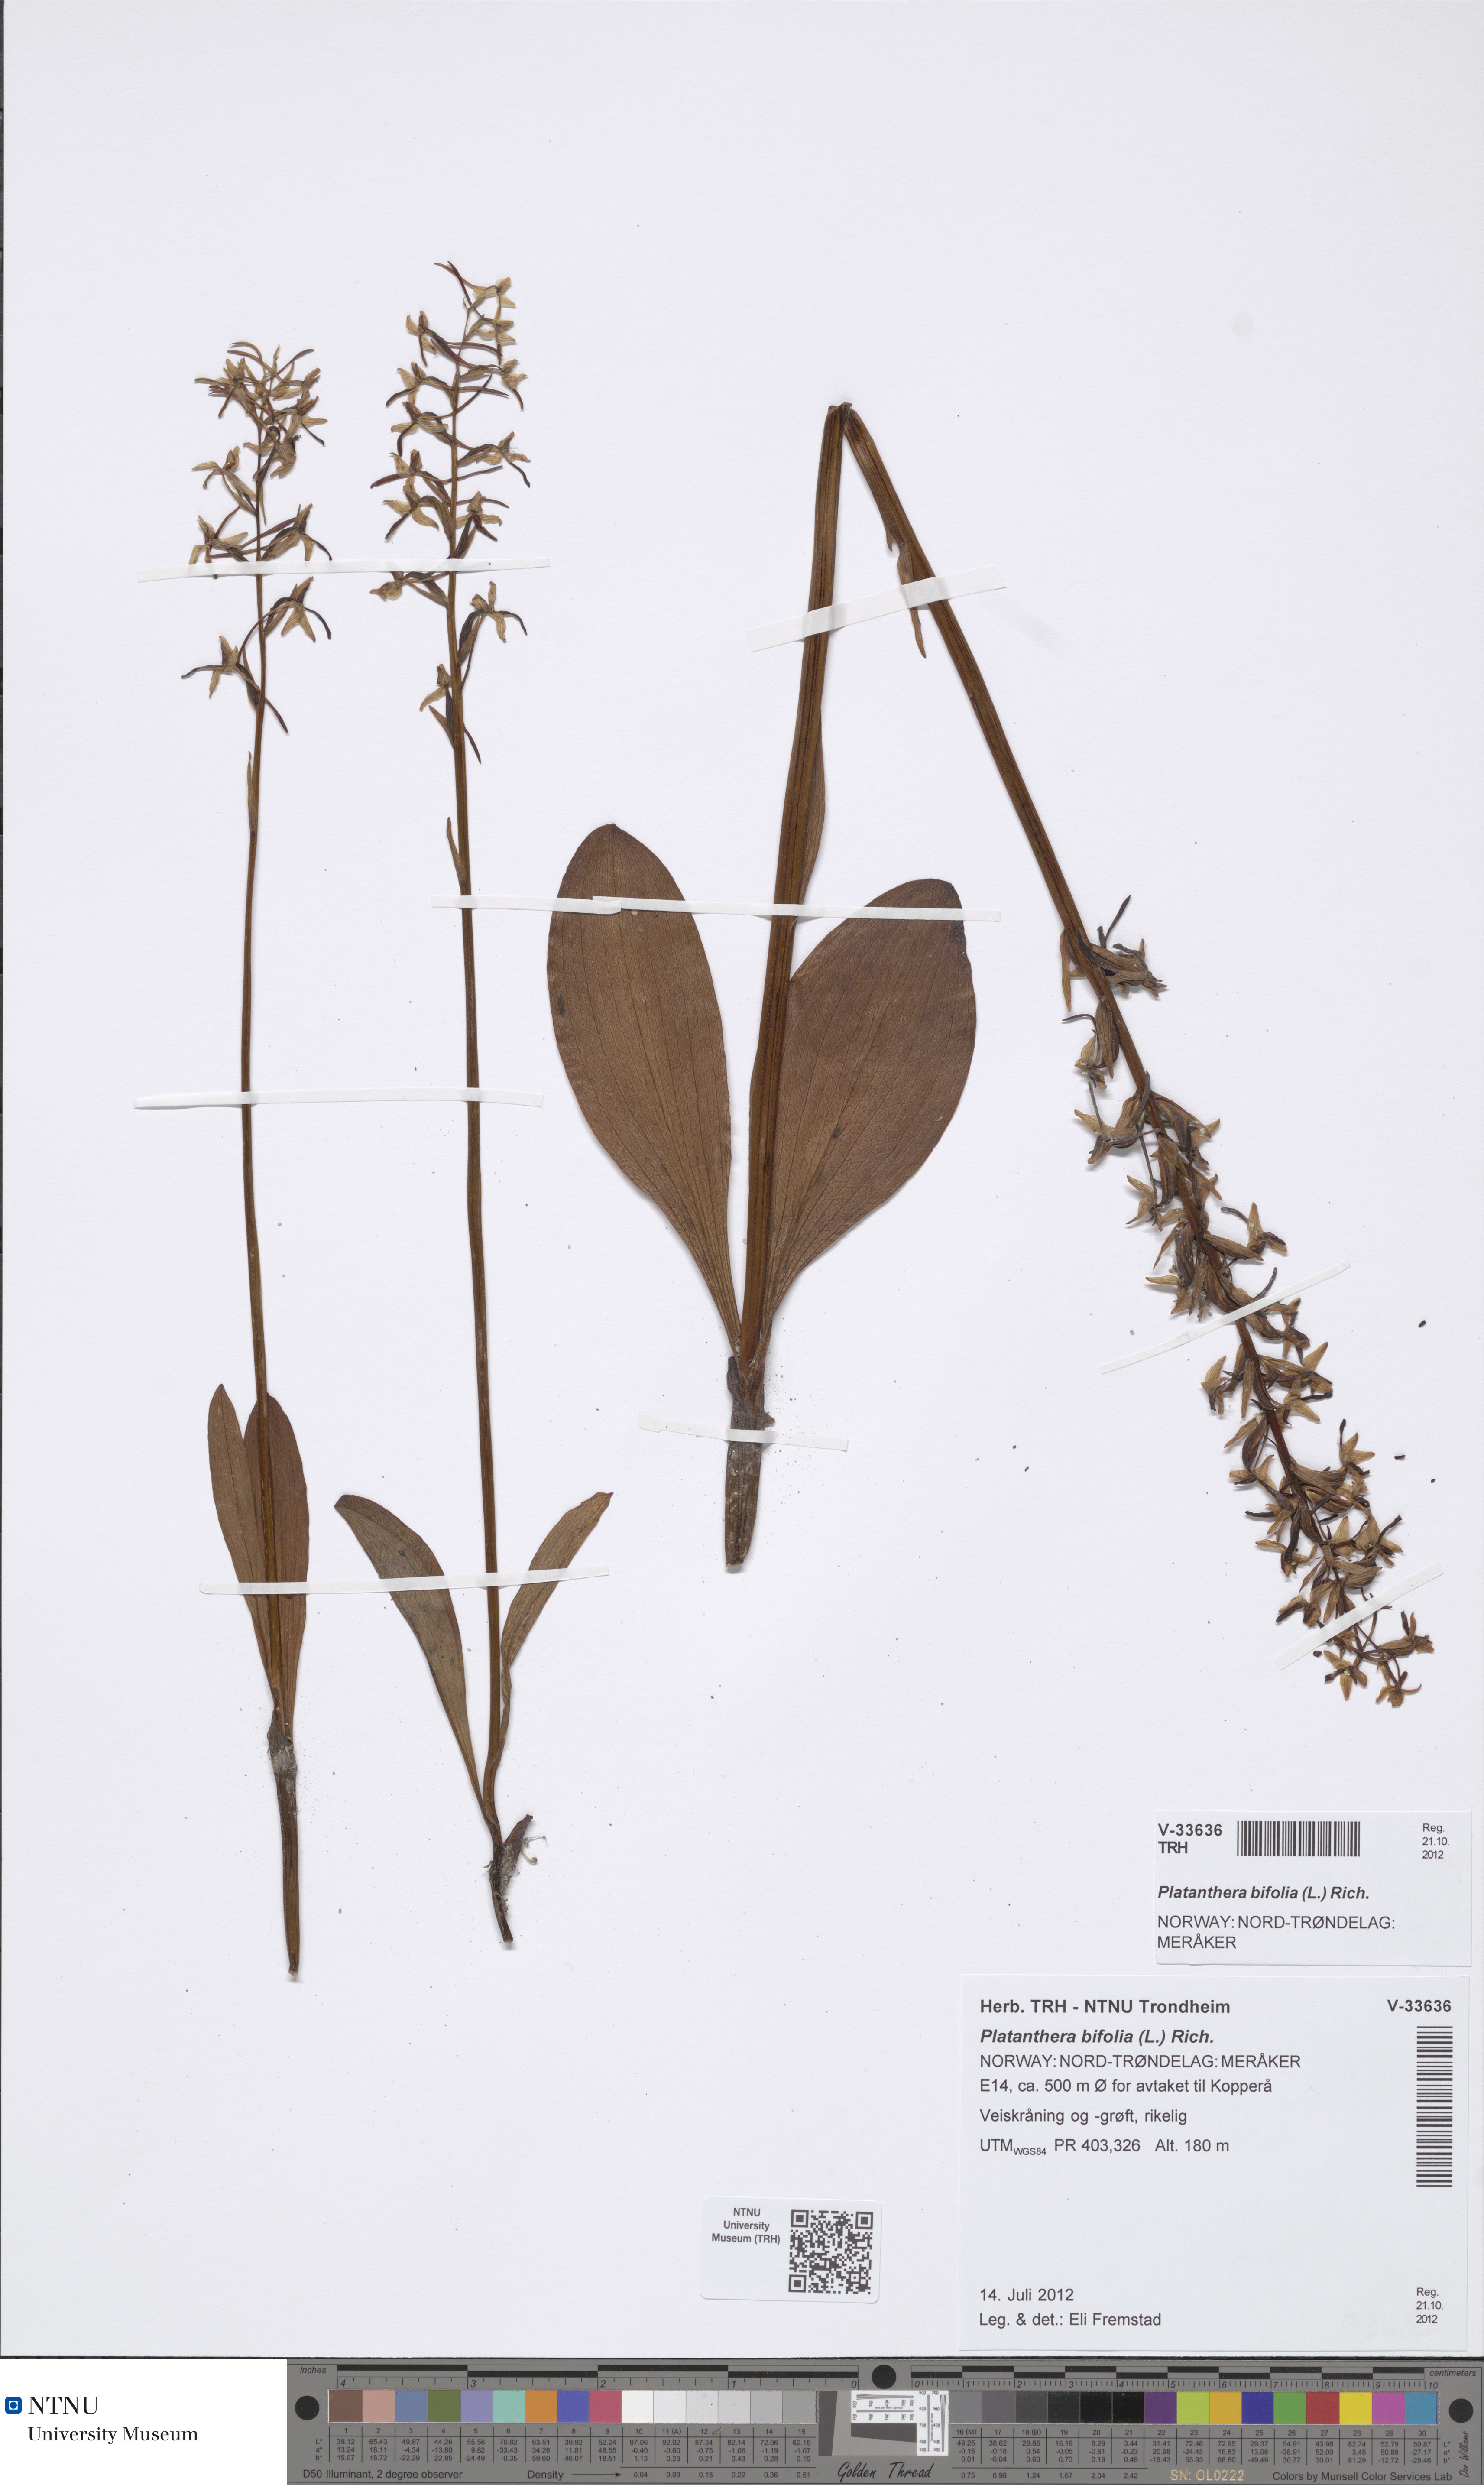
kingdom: Plantae
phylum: Tracheophyta
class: Liliopsida
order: Asparagales
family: Orchidaceae
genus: Platanthera
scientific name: Platanthera bifolia
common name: Lesser butterfly-orchid
